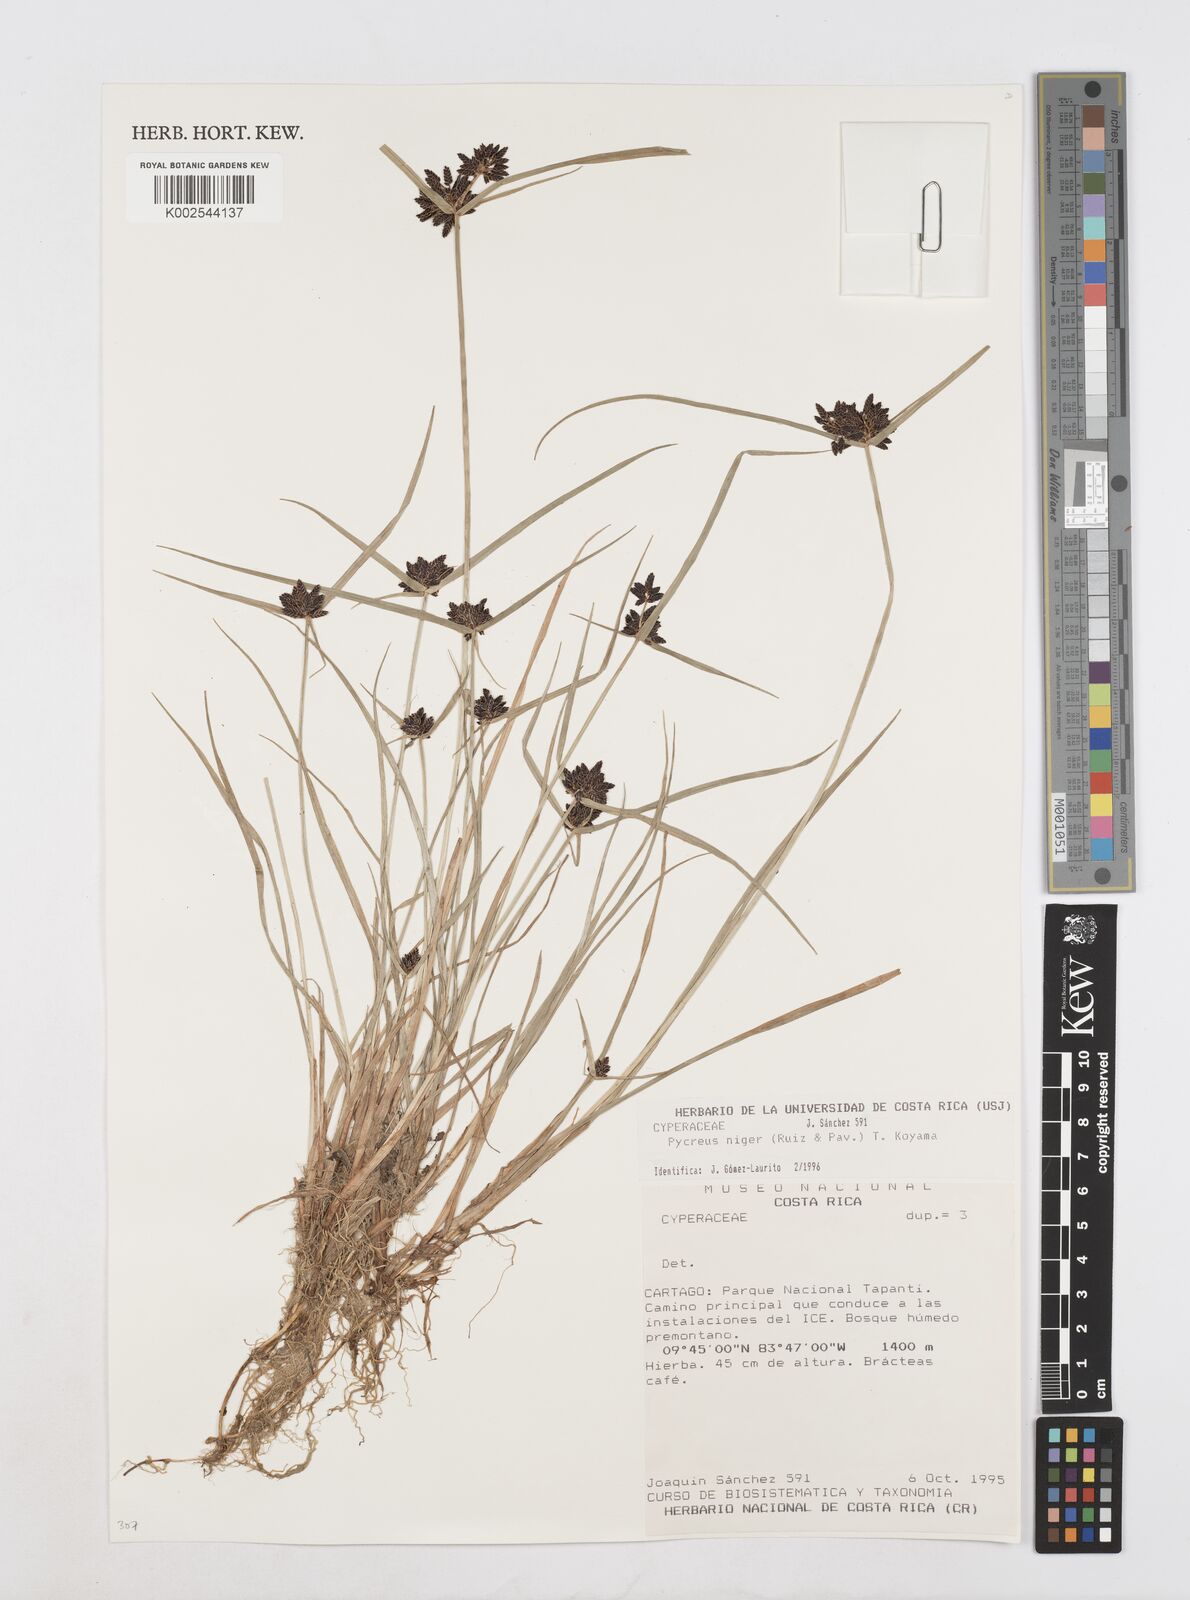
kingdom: Plantae
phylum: Tracheophyta
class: Liliopsida
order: Poales
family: Cyperaceae
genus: Cyperus
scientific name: Cyperus melanostachyus
